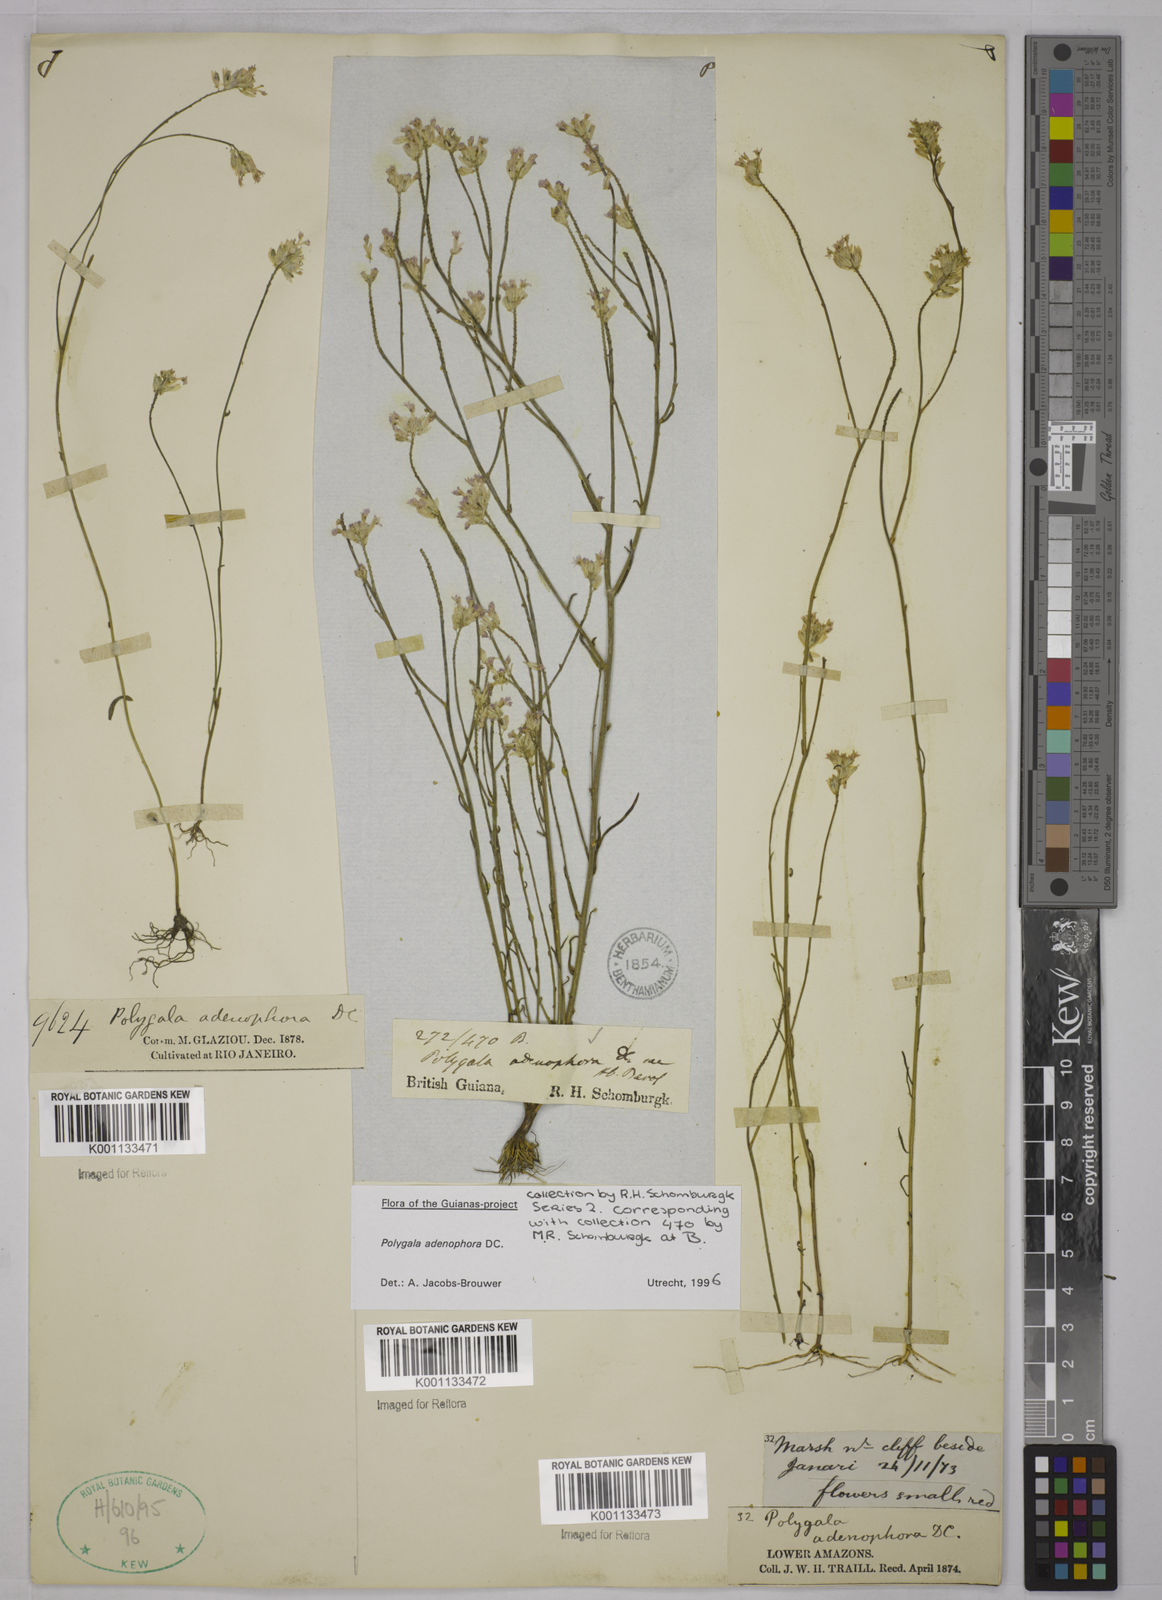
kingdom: Plantae
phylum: Tracheophyta
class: Magnoliopsida
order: Fabales
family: Polygalaceae
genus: Polygala
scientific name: Polygala adenophora
